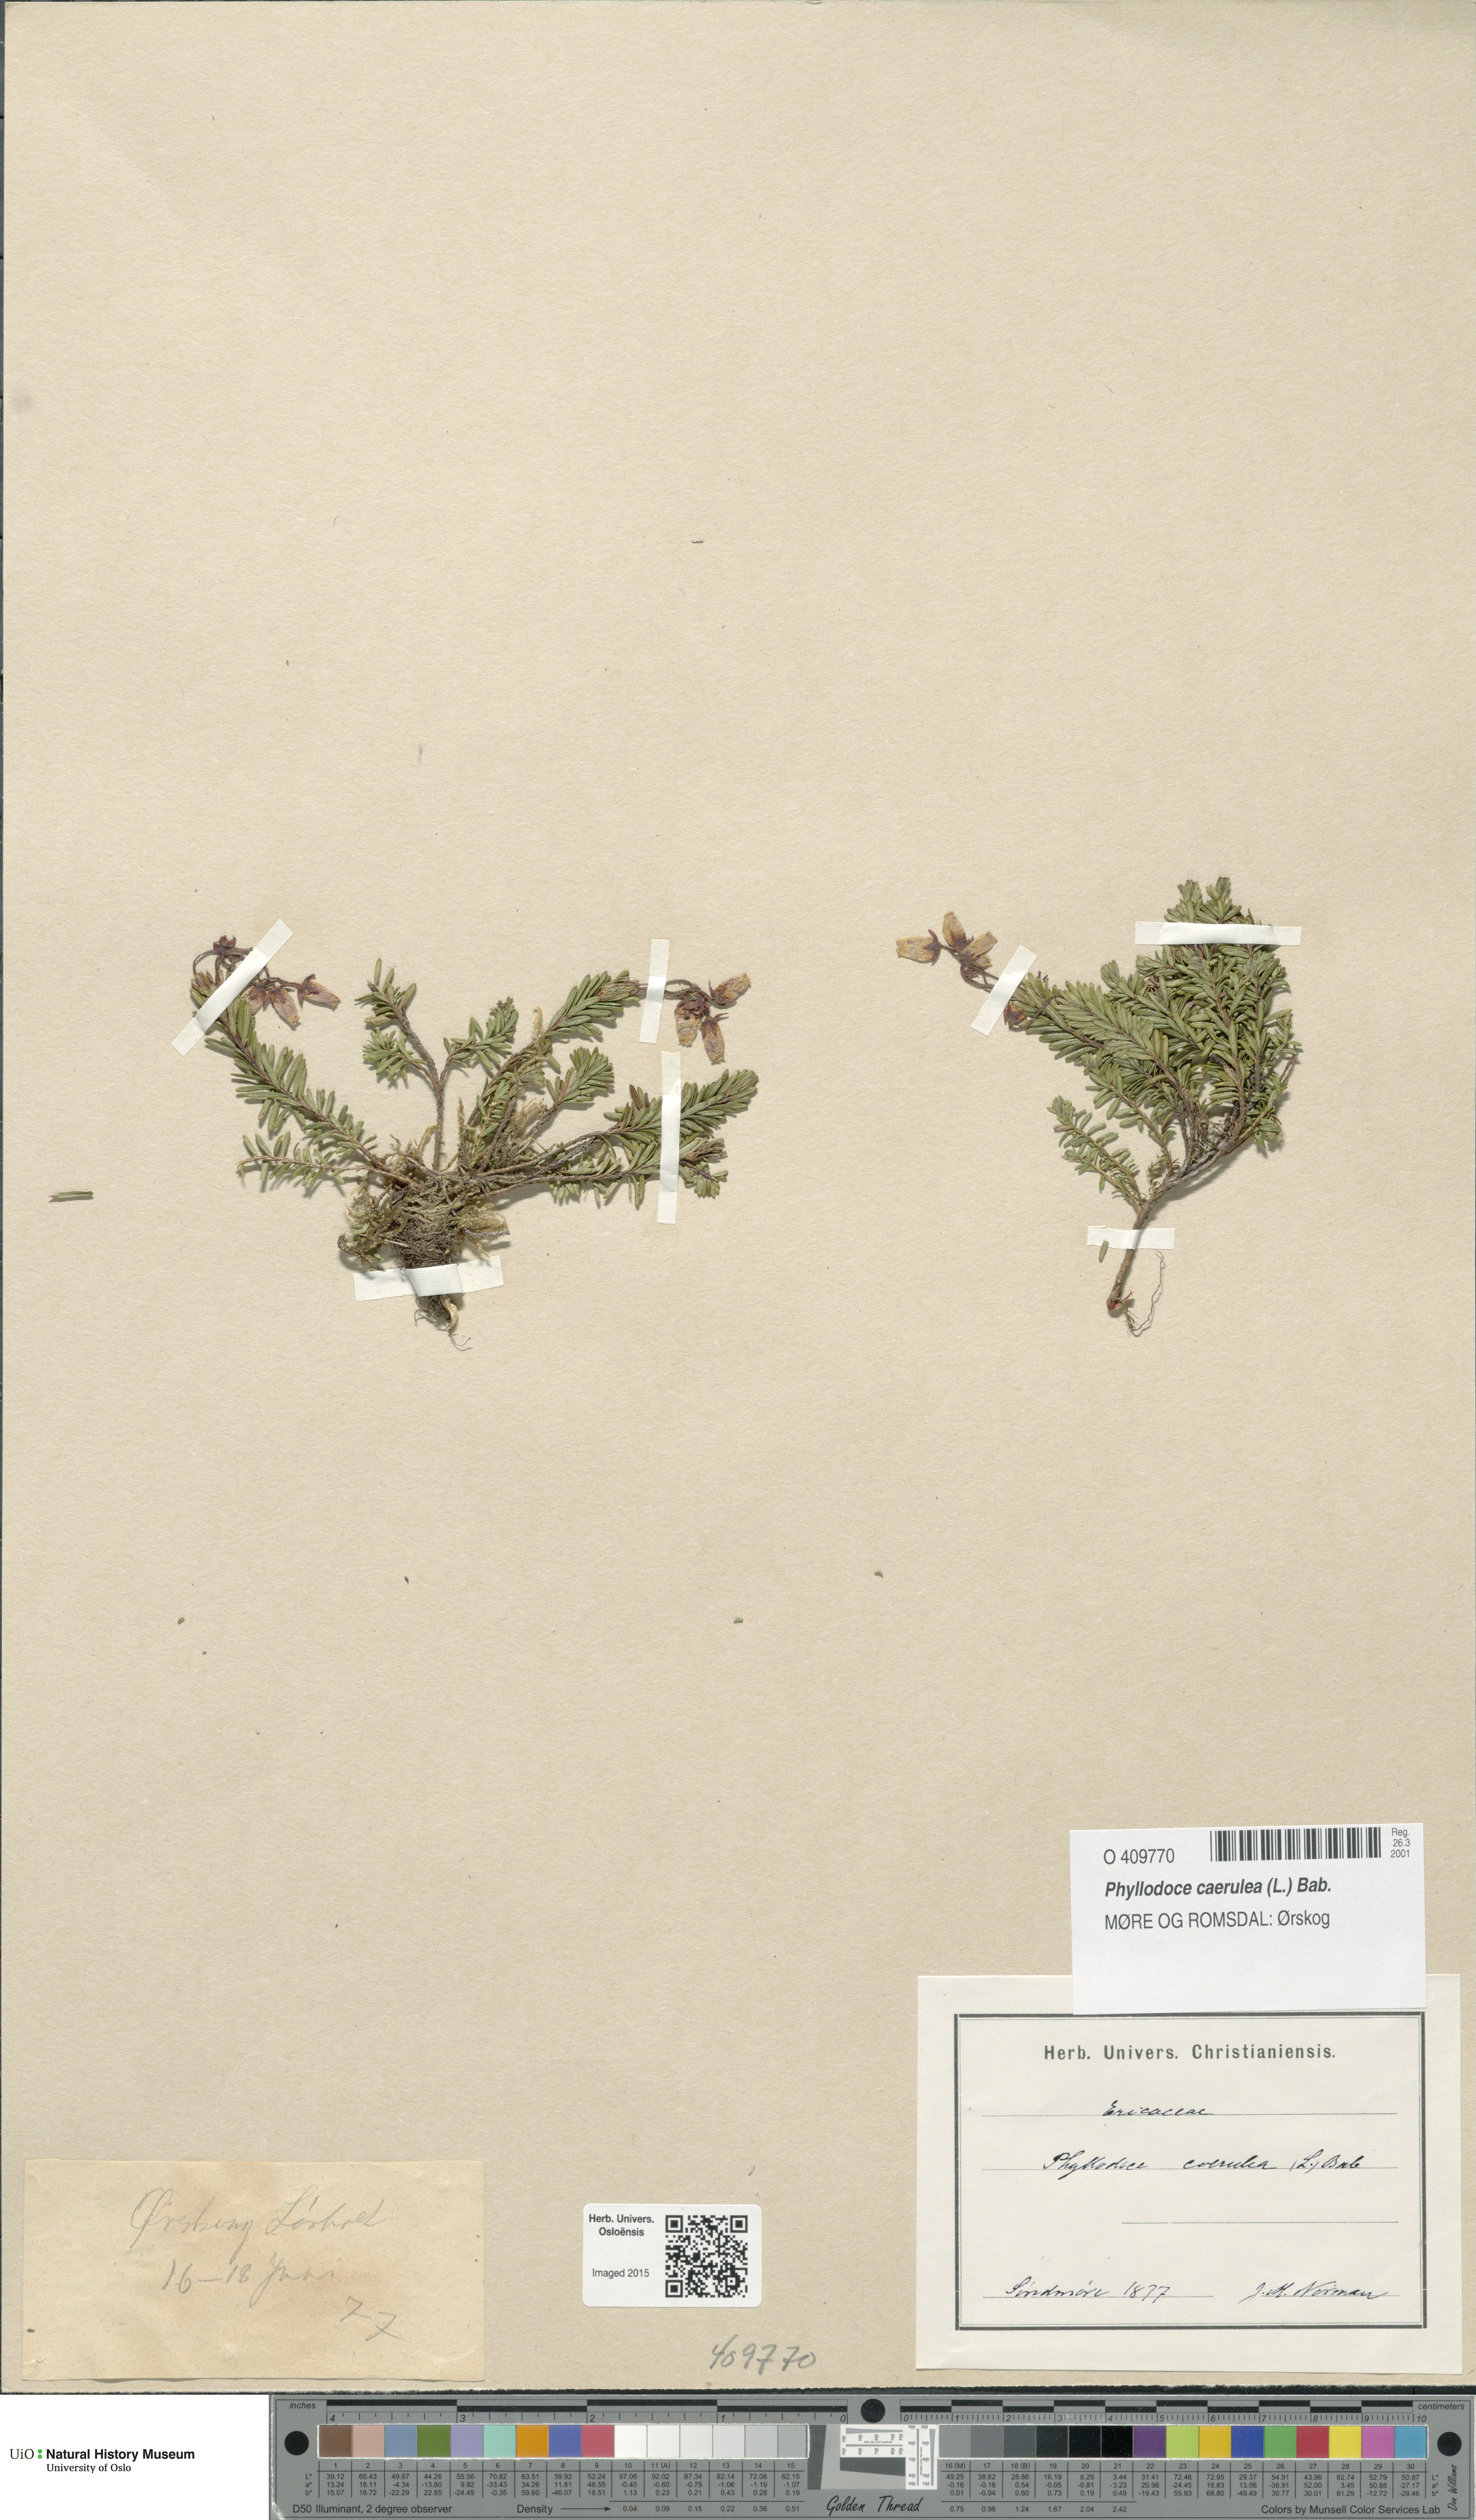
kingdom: Plantae
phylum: Tracheophyta
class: Magnoliopsida
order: Ericales
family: Ericaceae
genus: Phyllodoce
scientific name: Phyllodoce caerulea
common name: Blue heath
